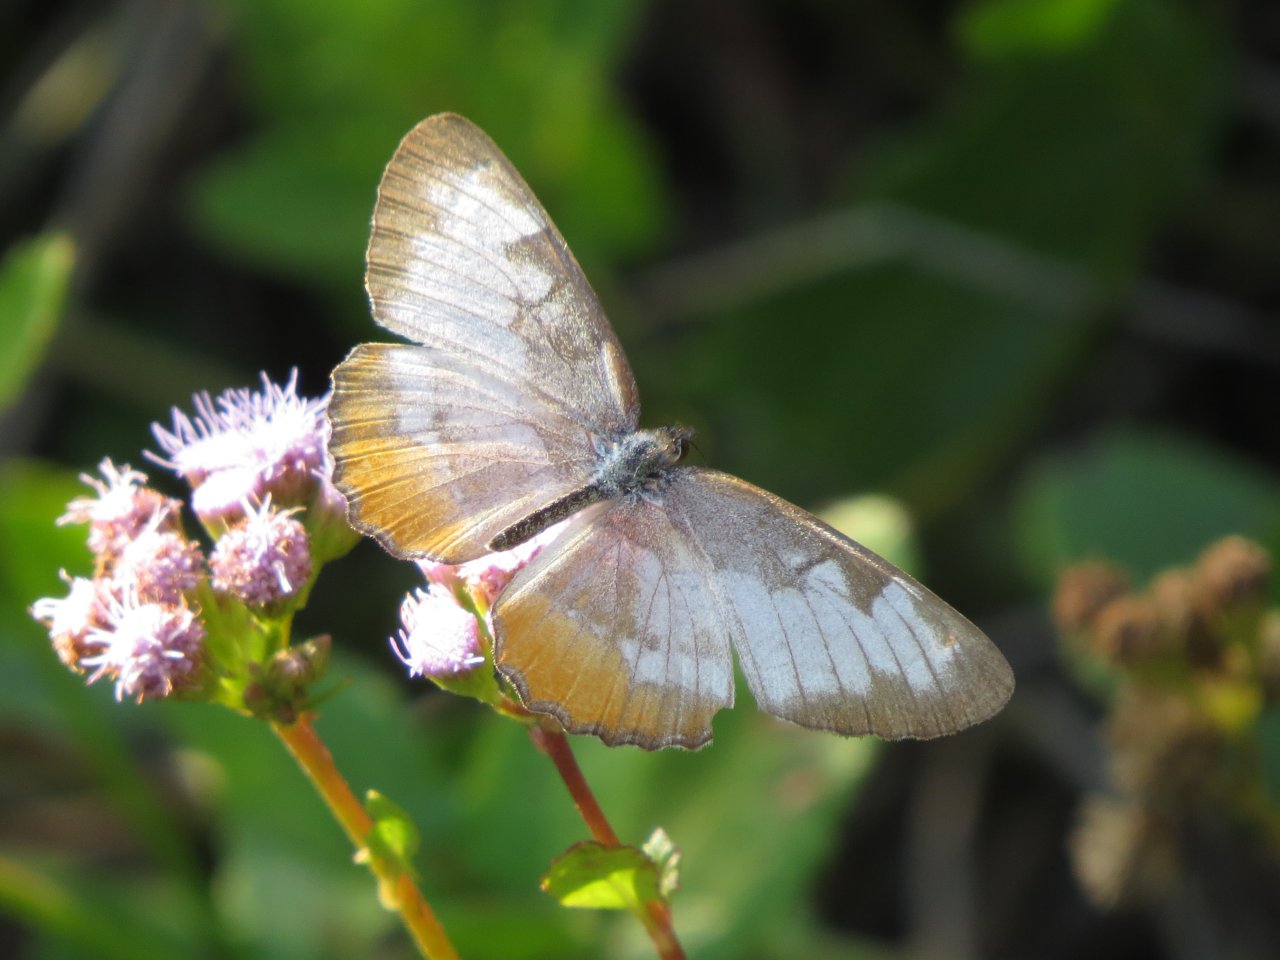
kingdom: Animalia
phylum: Arthropoda
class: Insecta
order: Lepidoptera
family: Nymphalidae
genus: Mestra
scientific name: Mestra amymone
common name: Common Mestra
